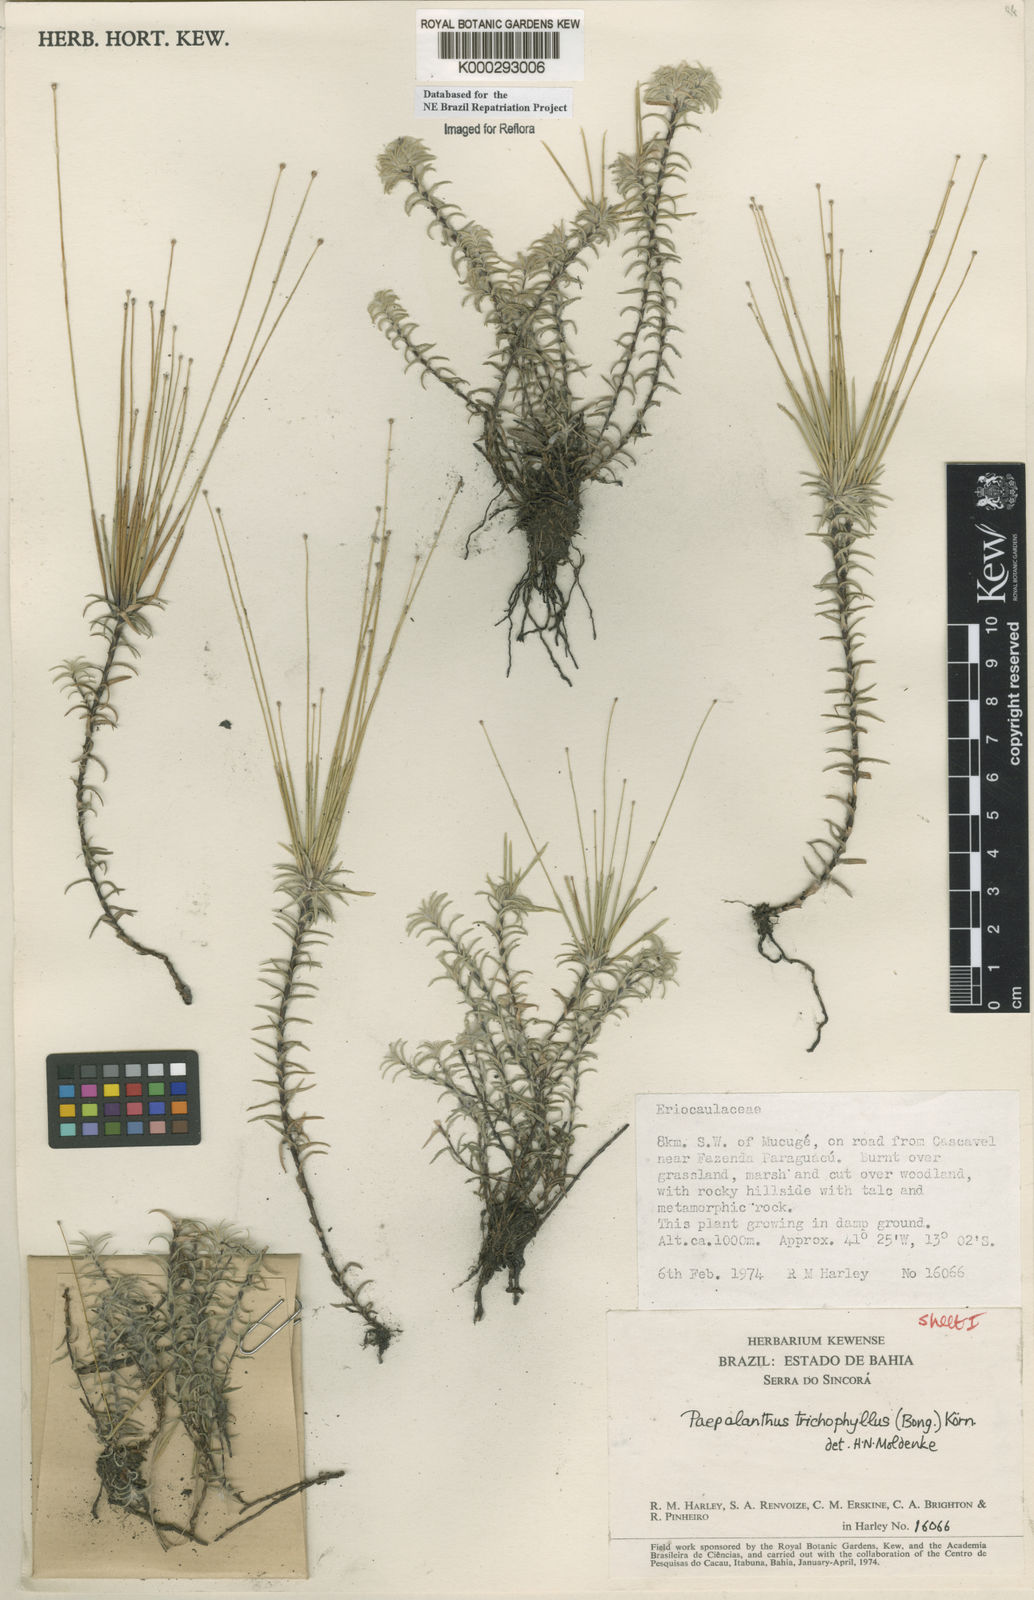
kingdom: Plantae
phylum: Tracheophyta
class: Liliopsida
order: Poales
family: Eriocaulaceae
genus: Paepalanthus
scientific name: Paepalanthus
